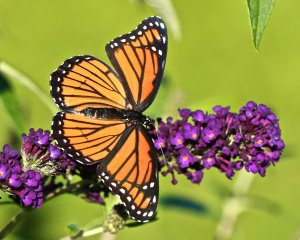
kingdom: Animalia
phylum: Arthropoda
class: Insecta
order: Lepidoptera
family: Nymphalidae
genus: Limenitis
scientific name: Limenitis archippus
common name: Viceroy
